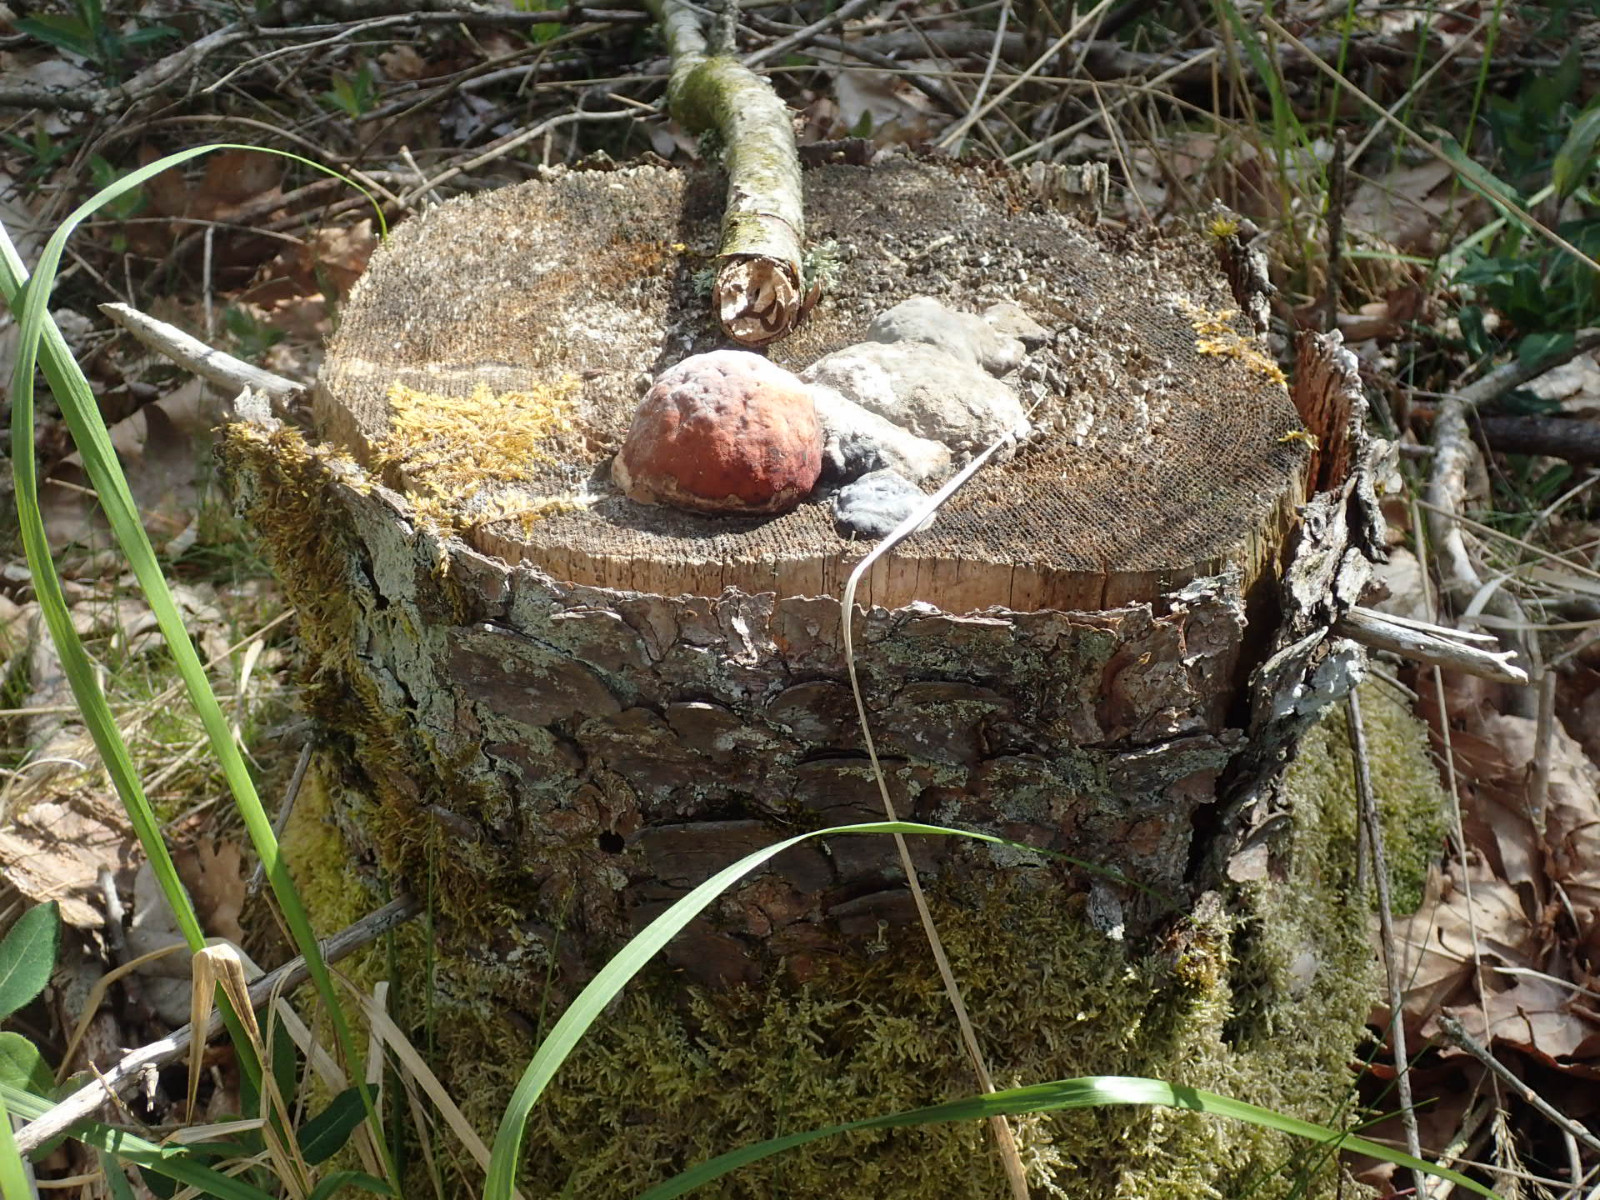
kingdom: Fungi
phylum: Basidiomycota
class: Agaricomycetes
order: Polyporales
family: Fomitopsidaceae
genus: Fomitopsis
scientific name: Fomitopsis pinicola
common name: randbæltet hovporesvamp
